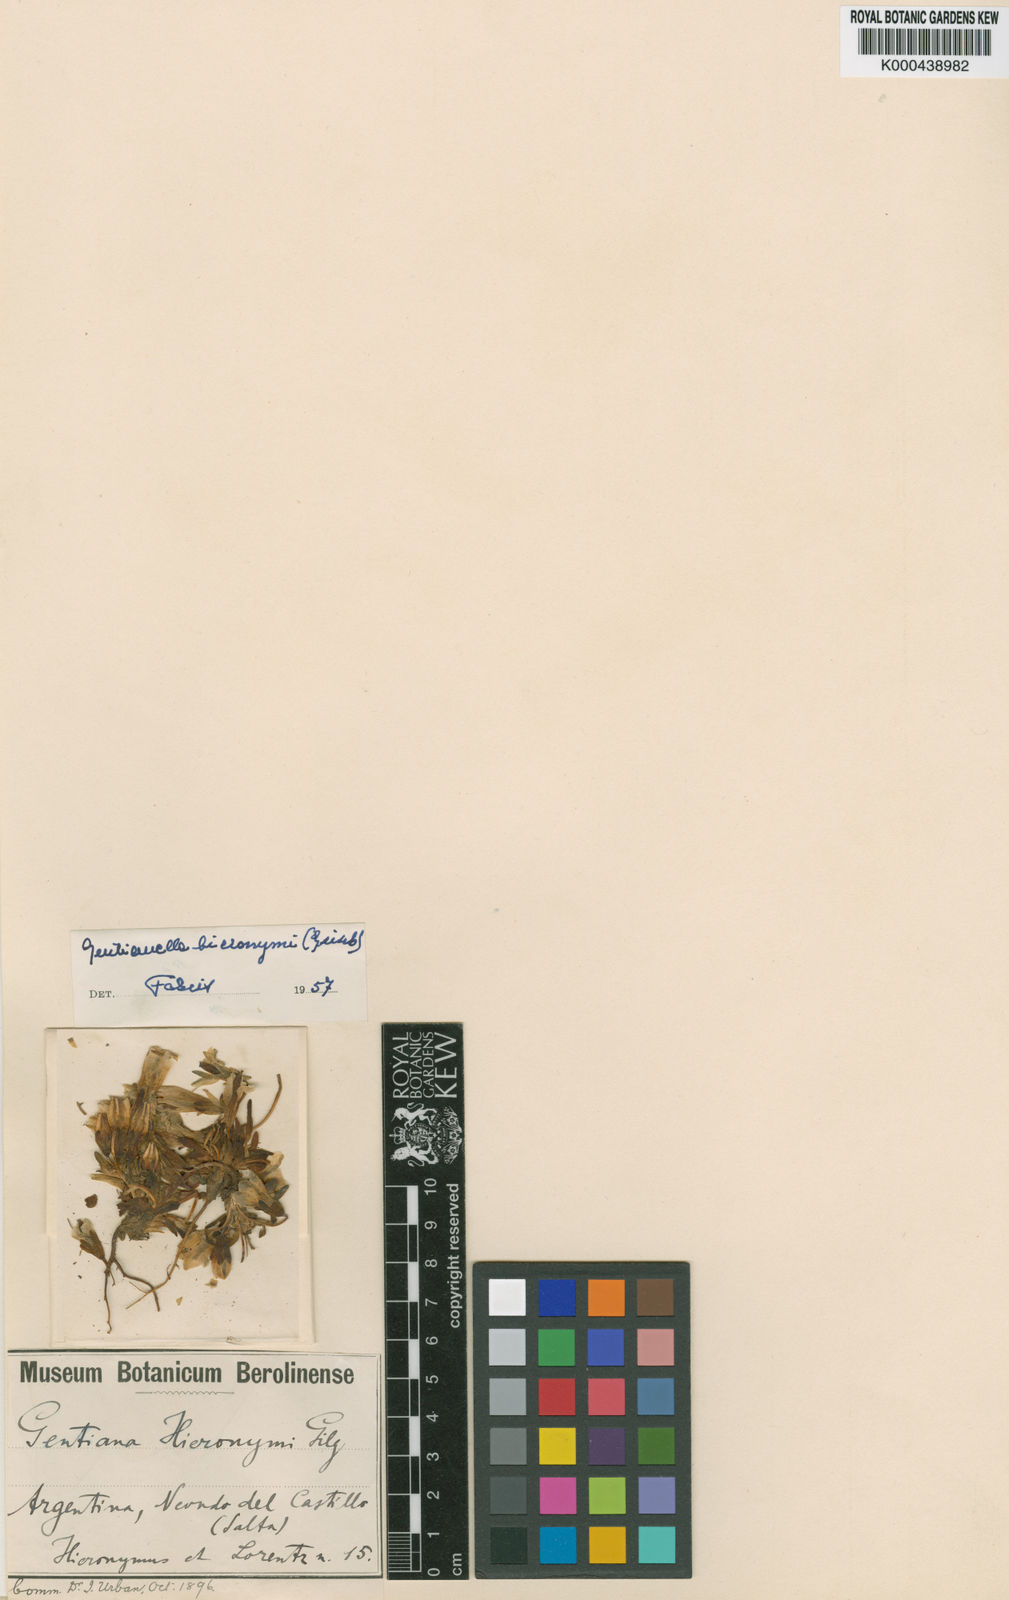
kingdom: Plantae
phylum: Tracheophyta
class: Magnoliopsida
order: Gentianales
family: Gentianaceae
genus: Gentianella
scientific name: Gentianella peruviana
